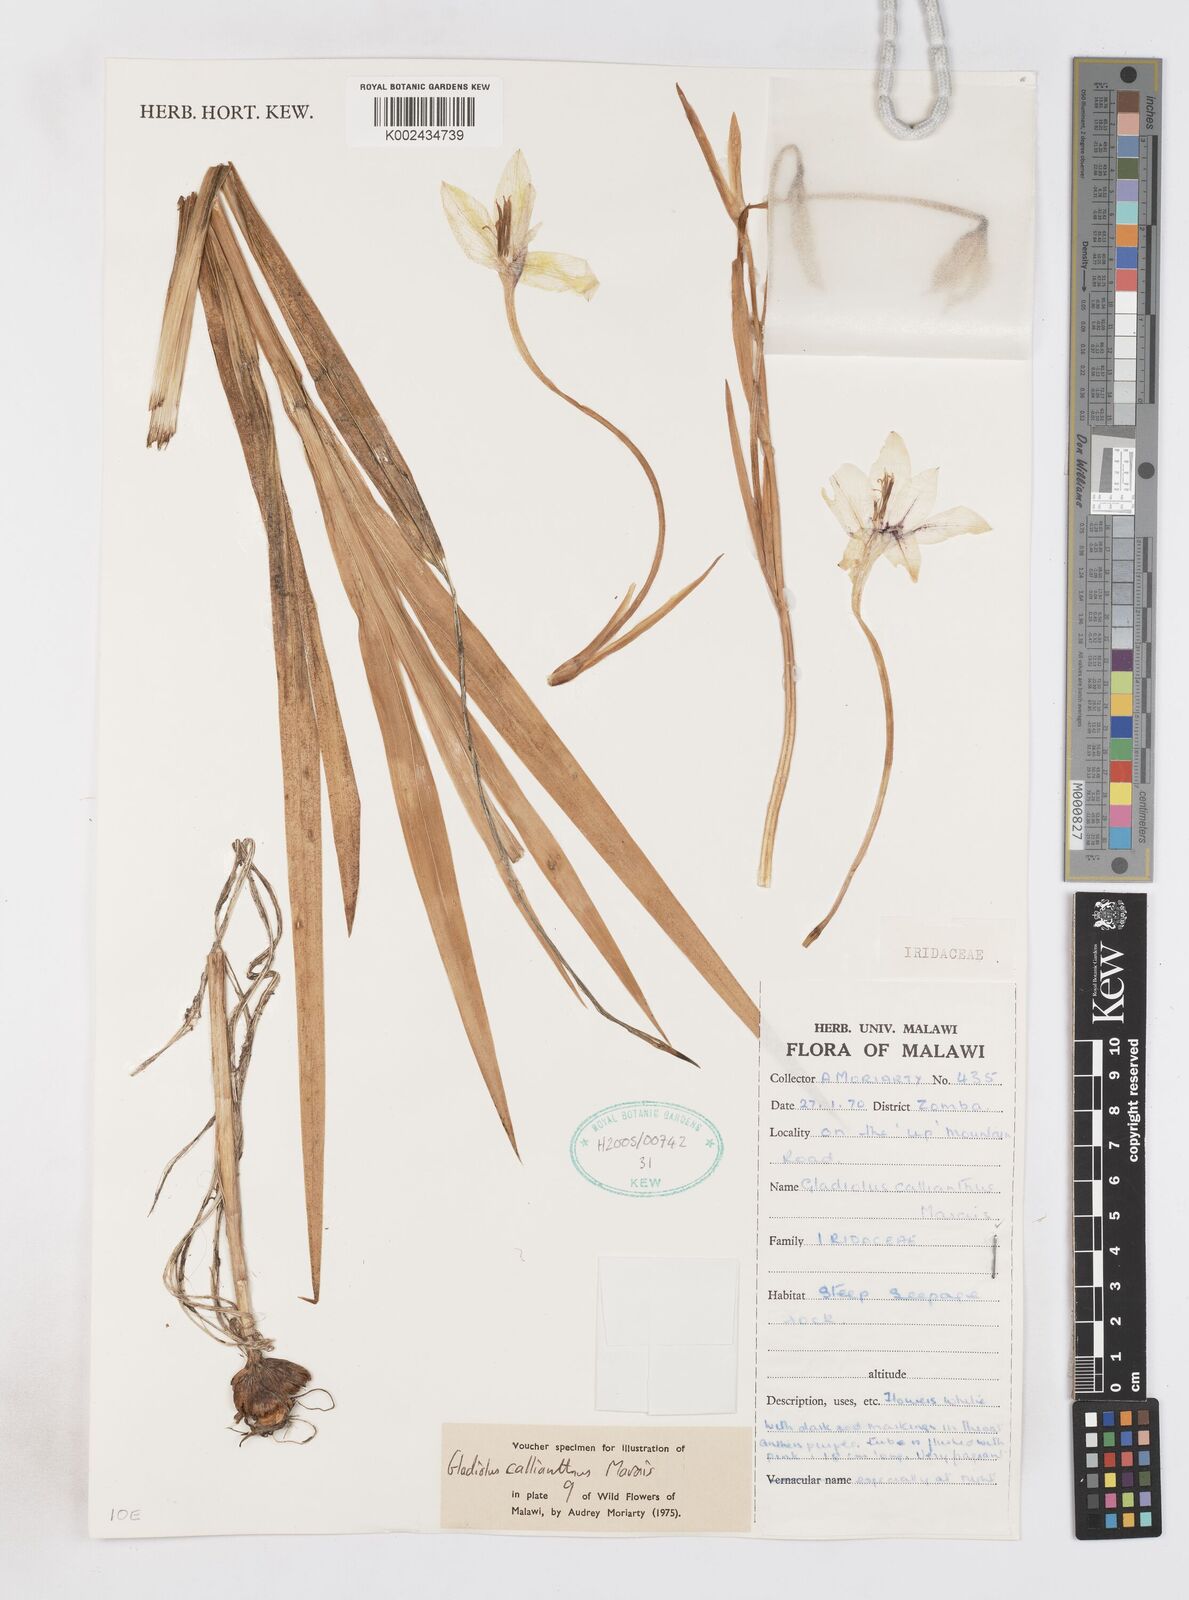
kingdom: Plantae
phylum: Tracheophyta
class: Liliopsida
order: Asparagales
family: Iridaceae
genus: Gladiolus
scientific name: Gladiolus murielae
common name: Acidanthera
